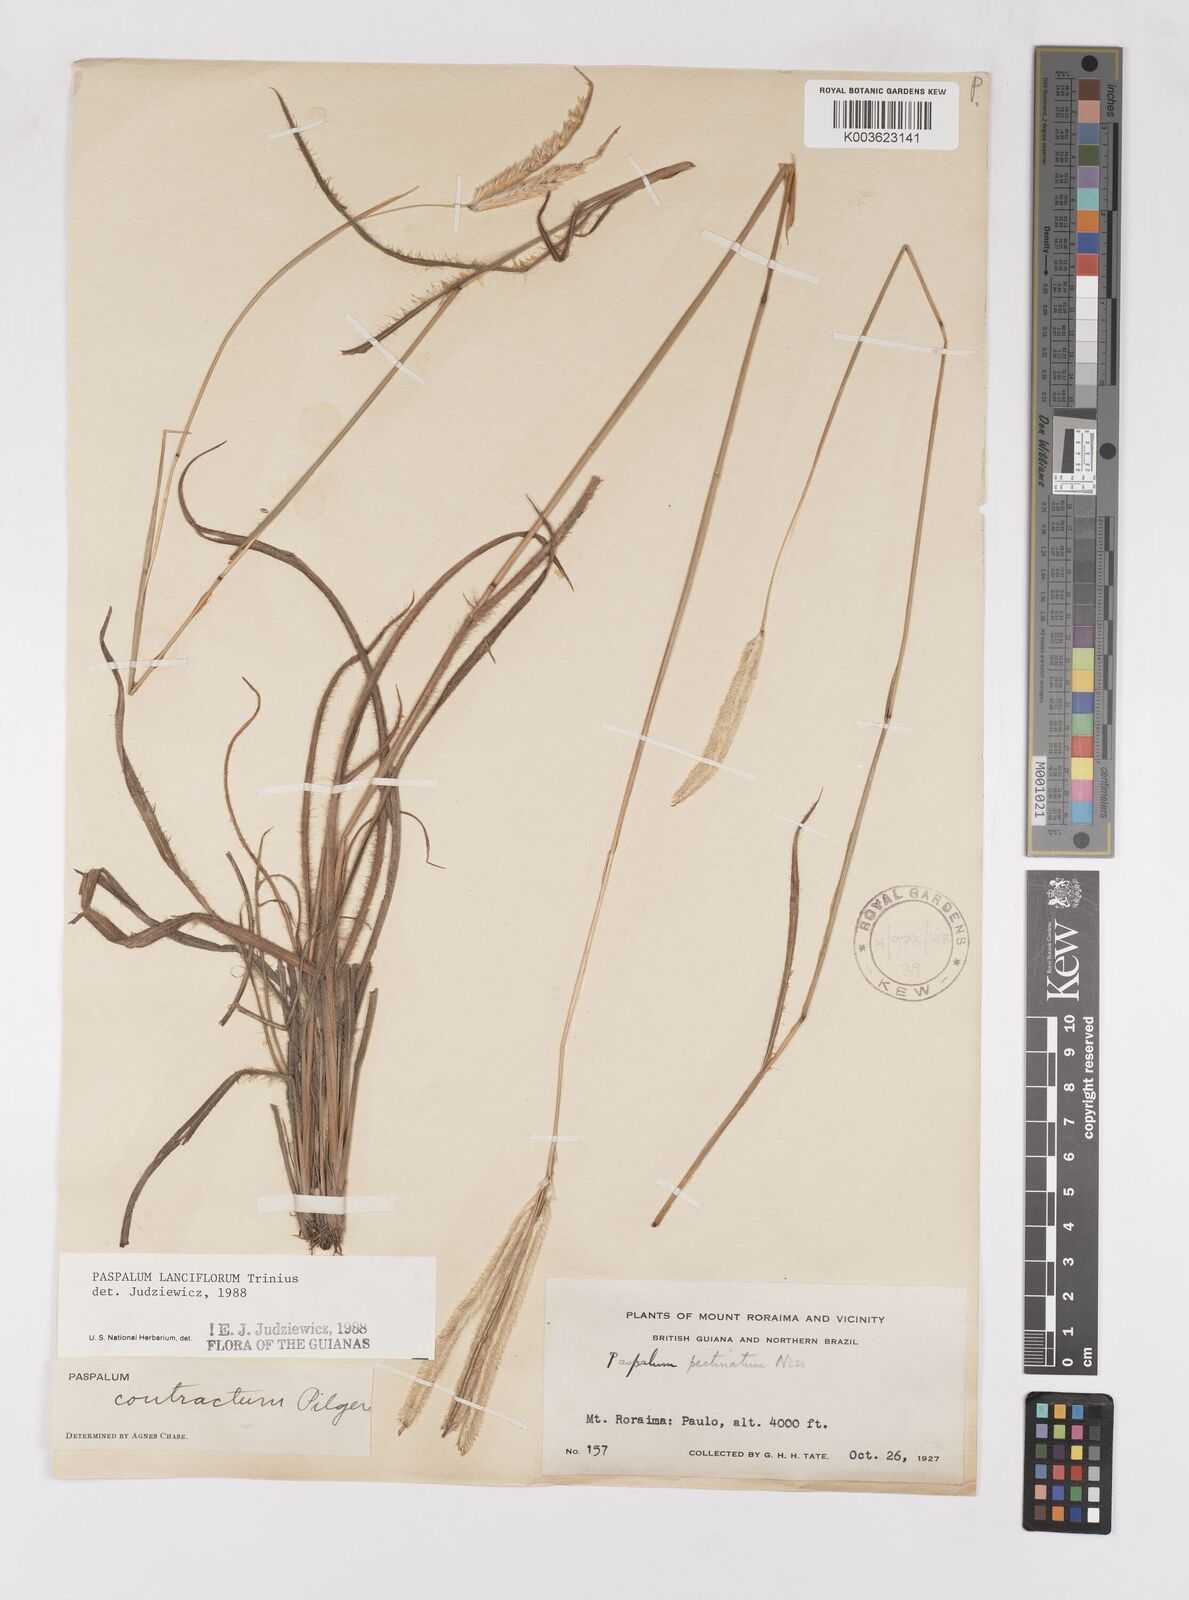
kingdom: Plantae
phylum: Tracheophyta
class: Liliopsida
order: Poales
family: Poaceae
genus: Paspalum
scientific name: Paspalum lanciflorum
